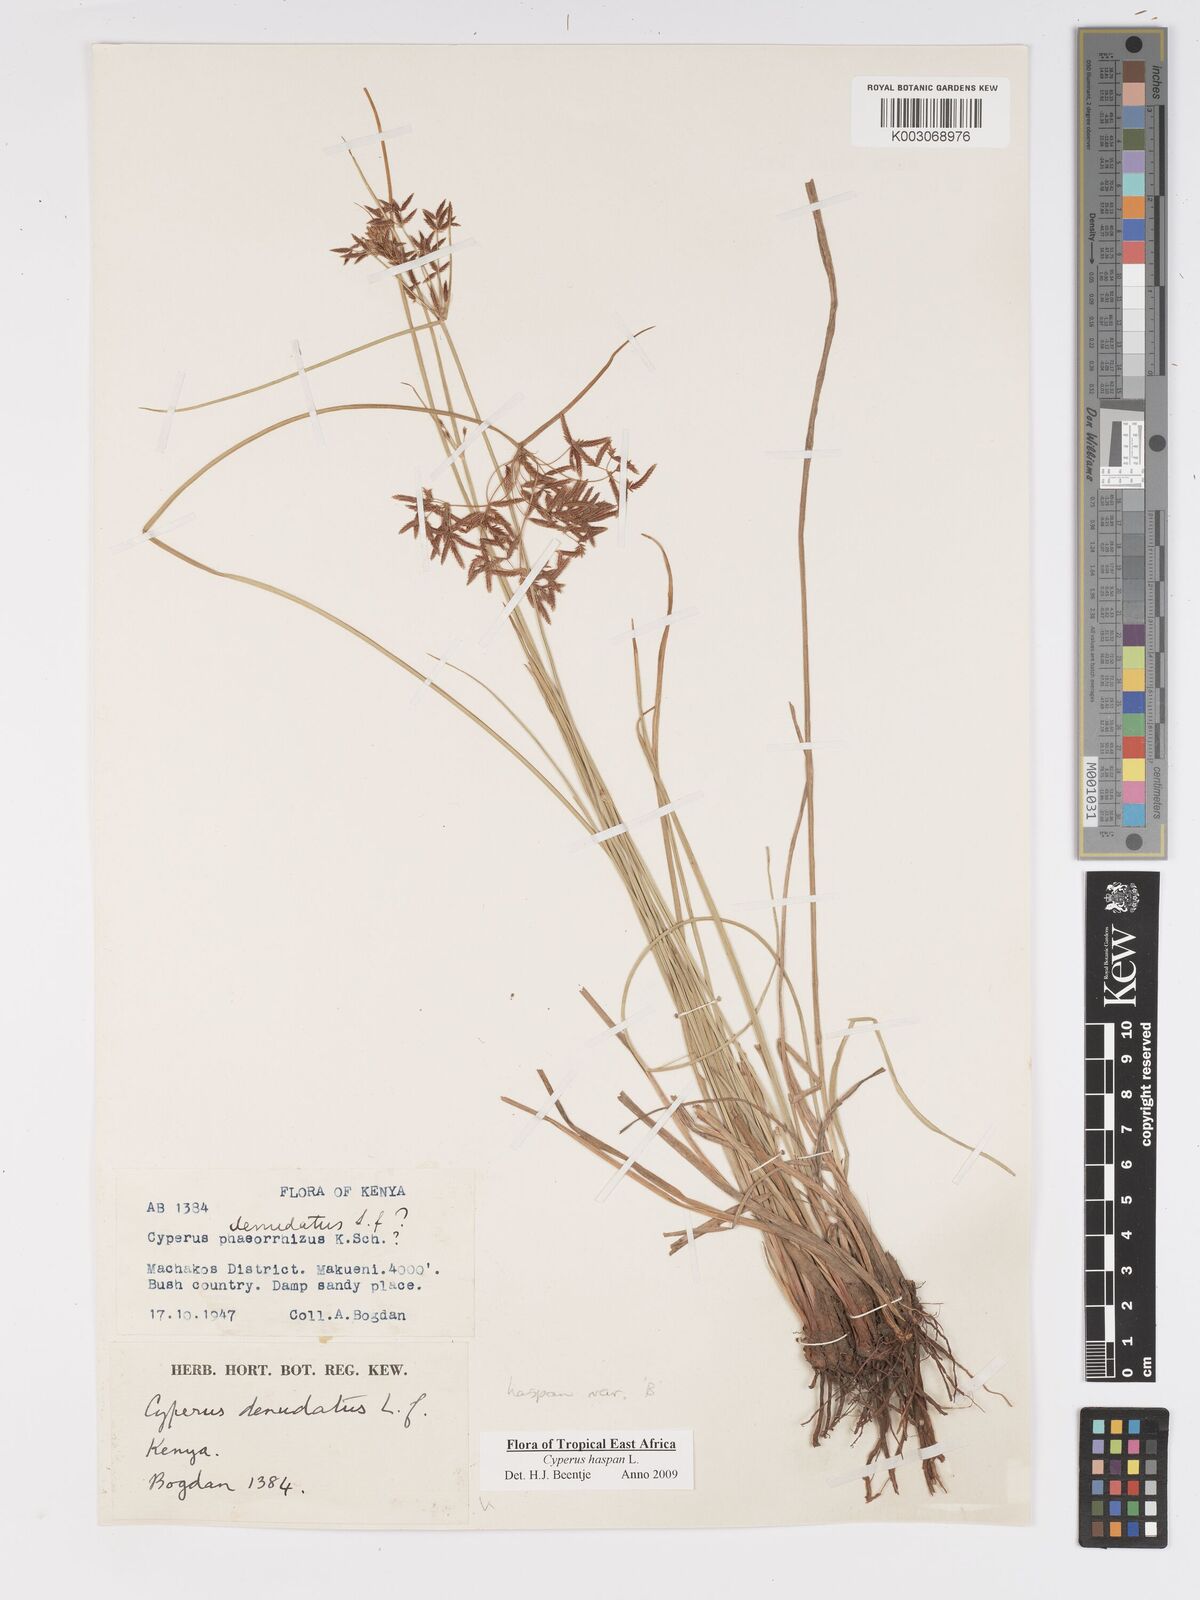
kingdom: Plantae
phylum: Tracheophyta
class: Liliopsida
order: Poales
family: Cyperaceae
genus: Cyperus
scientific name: Cyperus haspan
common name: Haspan flatsedge
